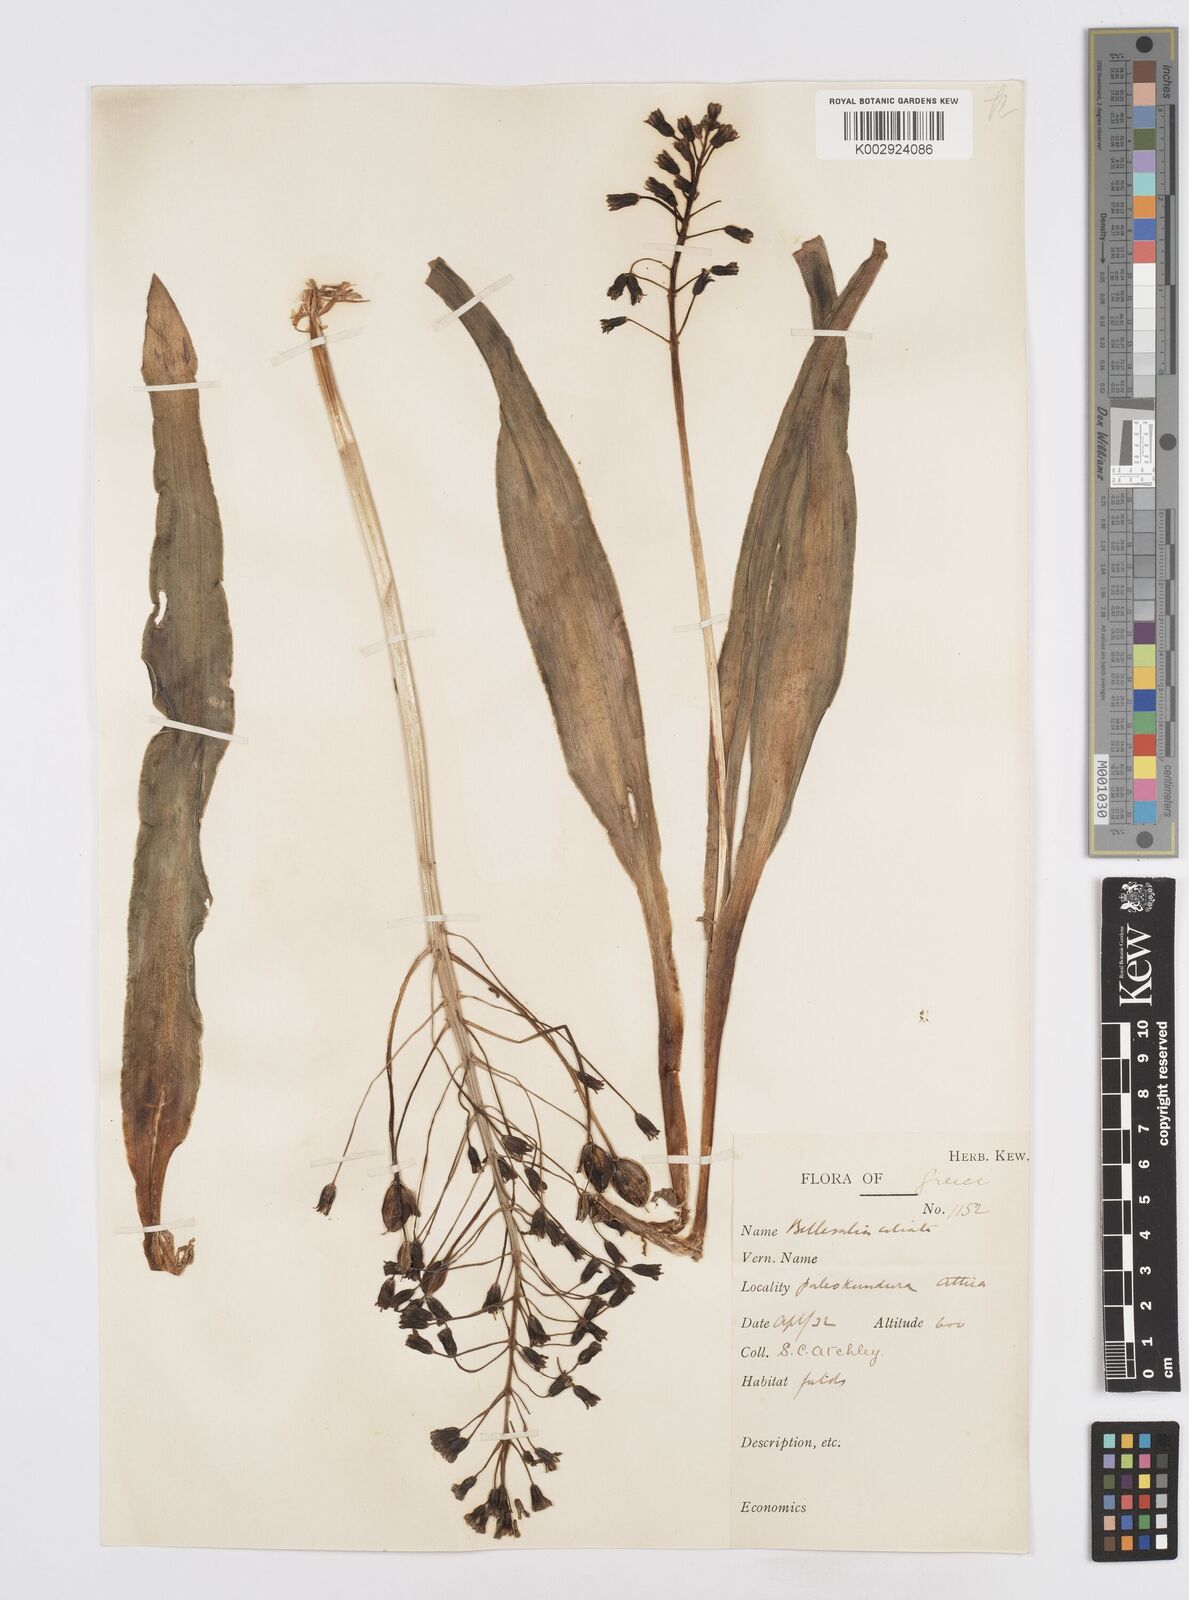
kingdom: Plantae
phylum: Tracheophyta
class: Liliopsida
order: Asparagales
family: Asparagaceae
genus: Bellevalia
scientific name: Bellevalia ciliata
